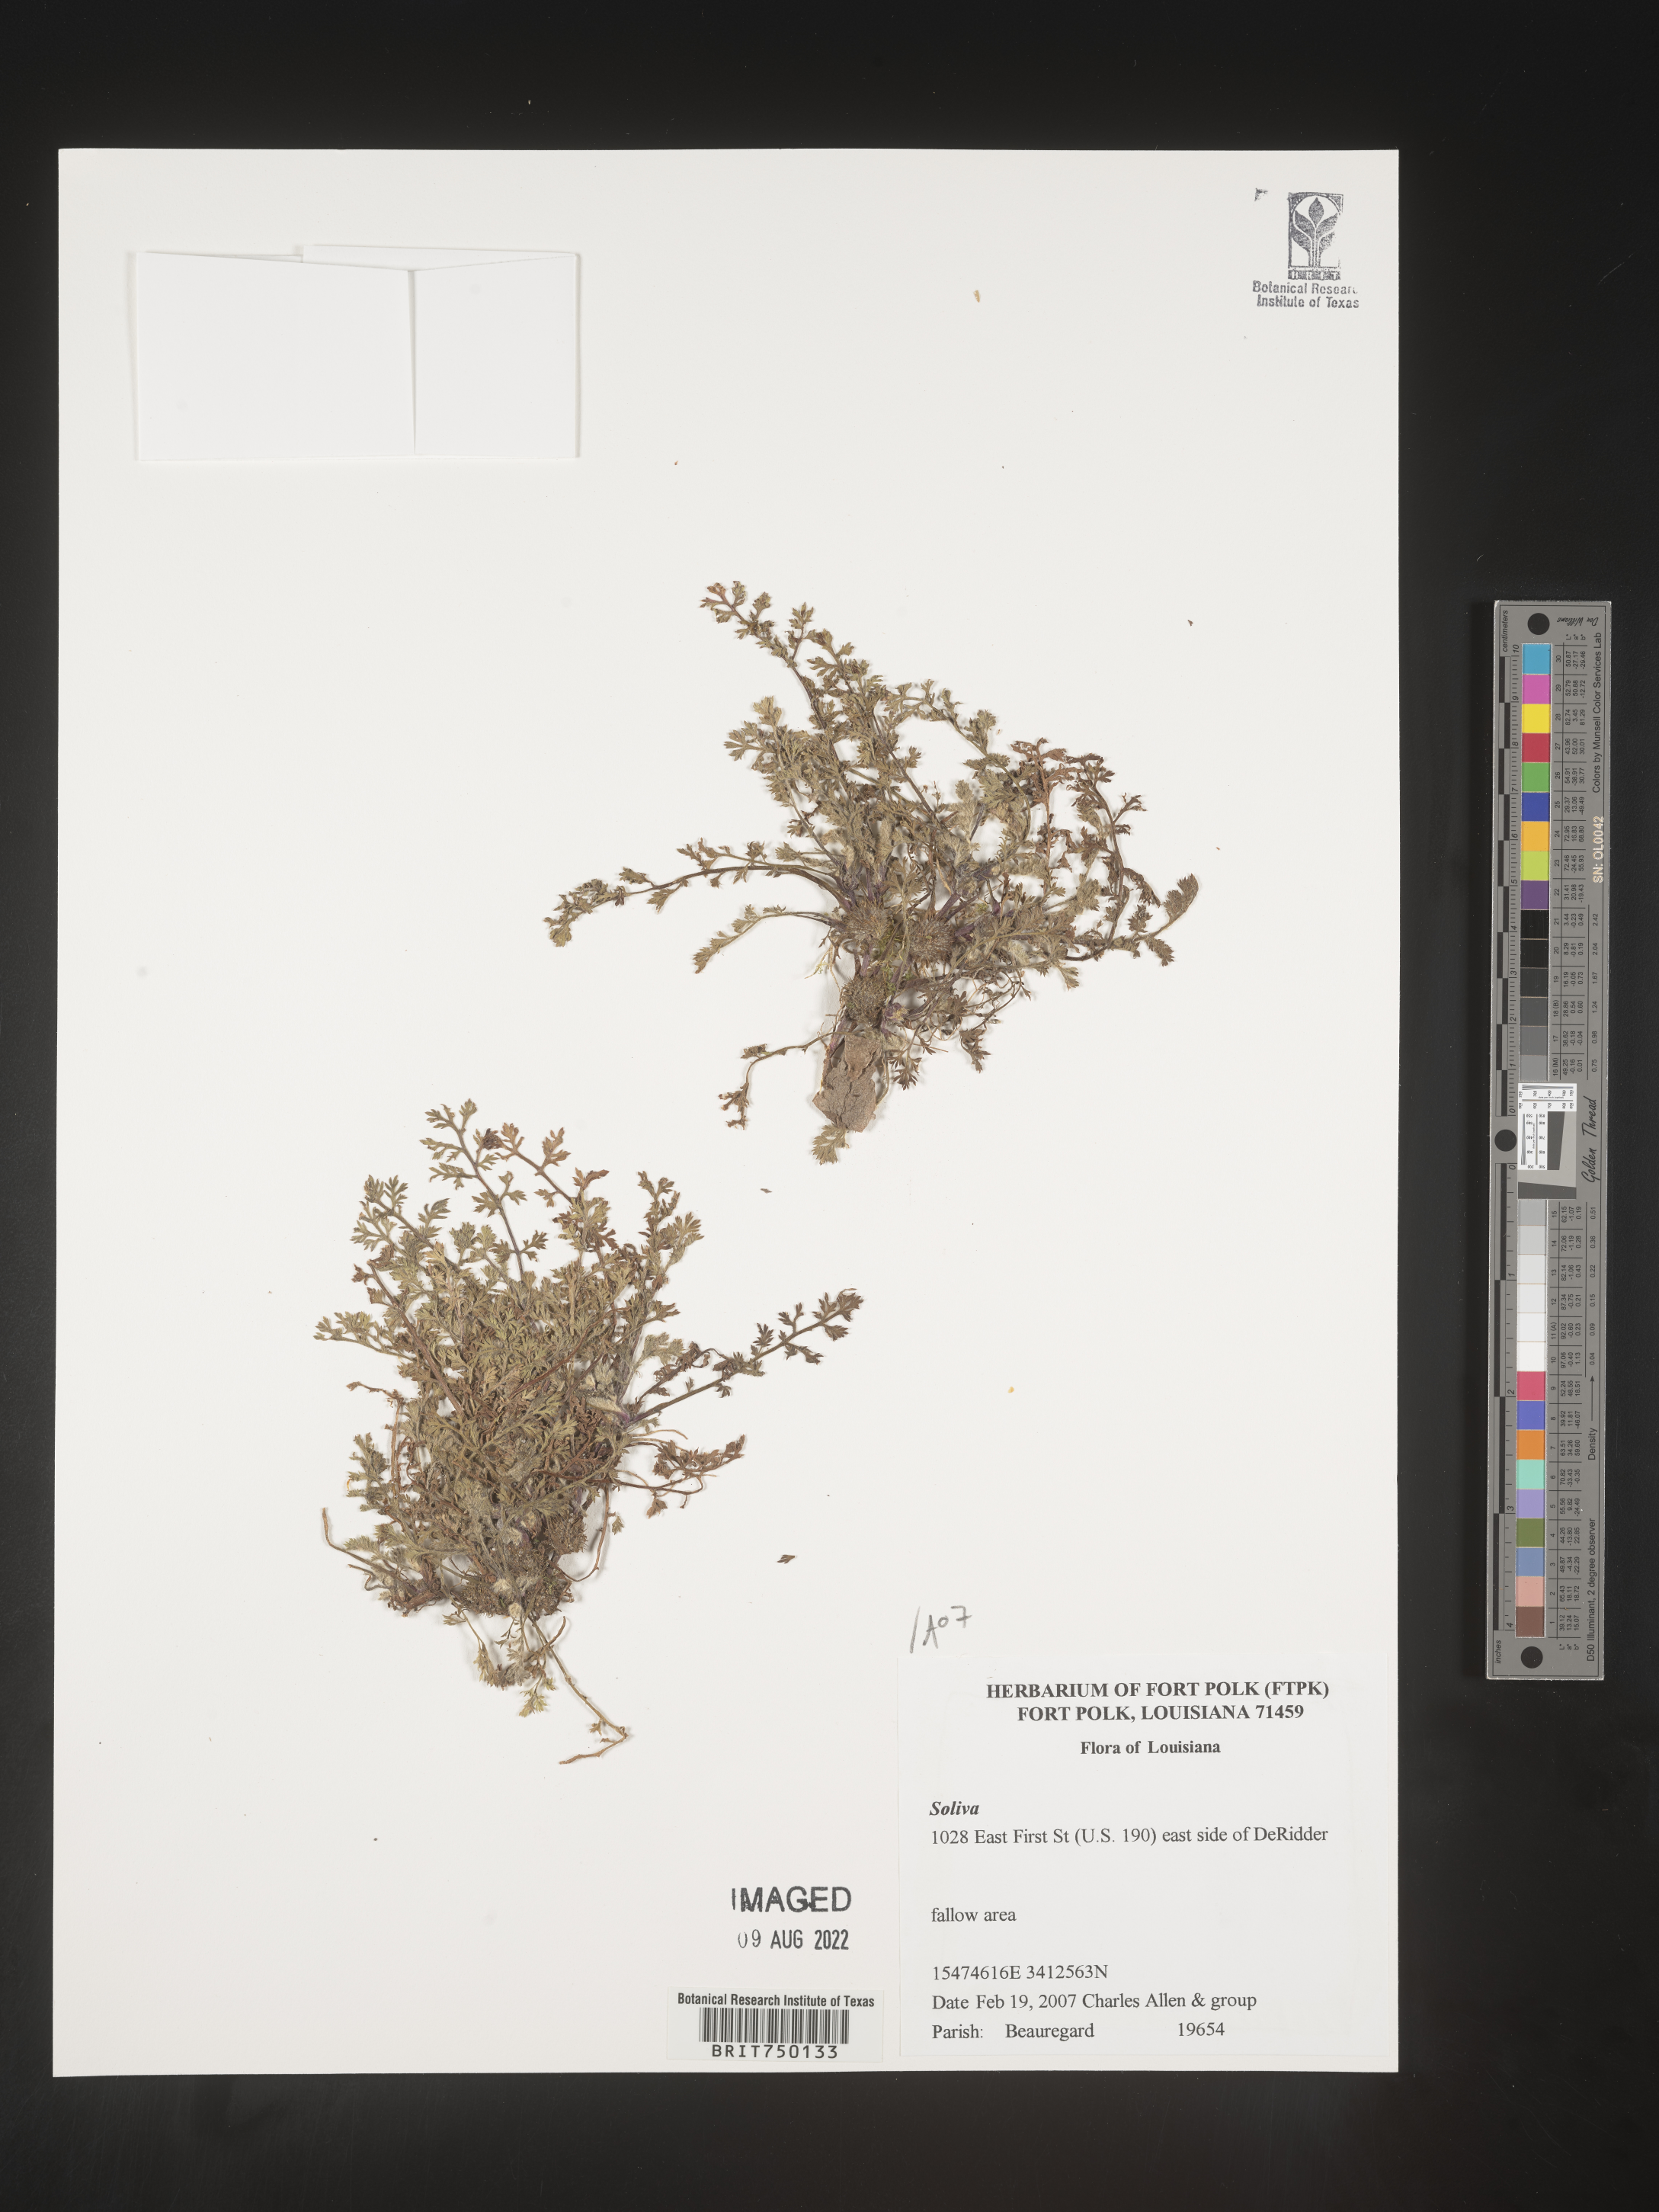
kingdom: Plantae
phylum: Tracheophyta
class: Magnoliopsida
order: Asterales
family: Asteraceae
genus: Soliva
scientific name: Soliva
